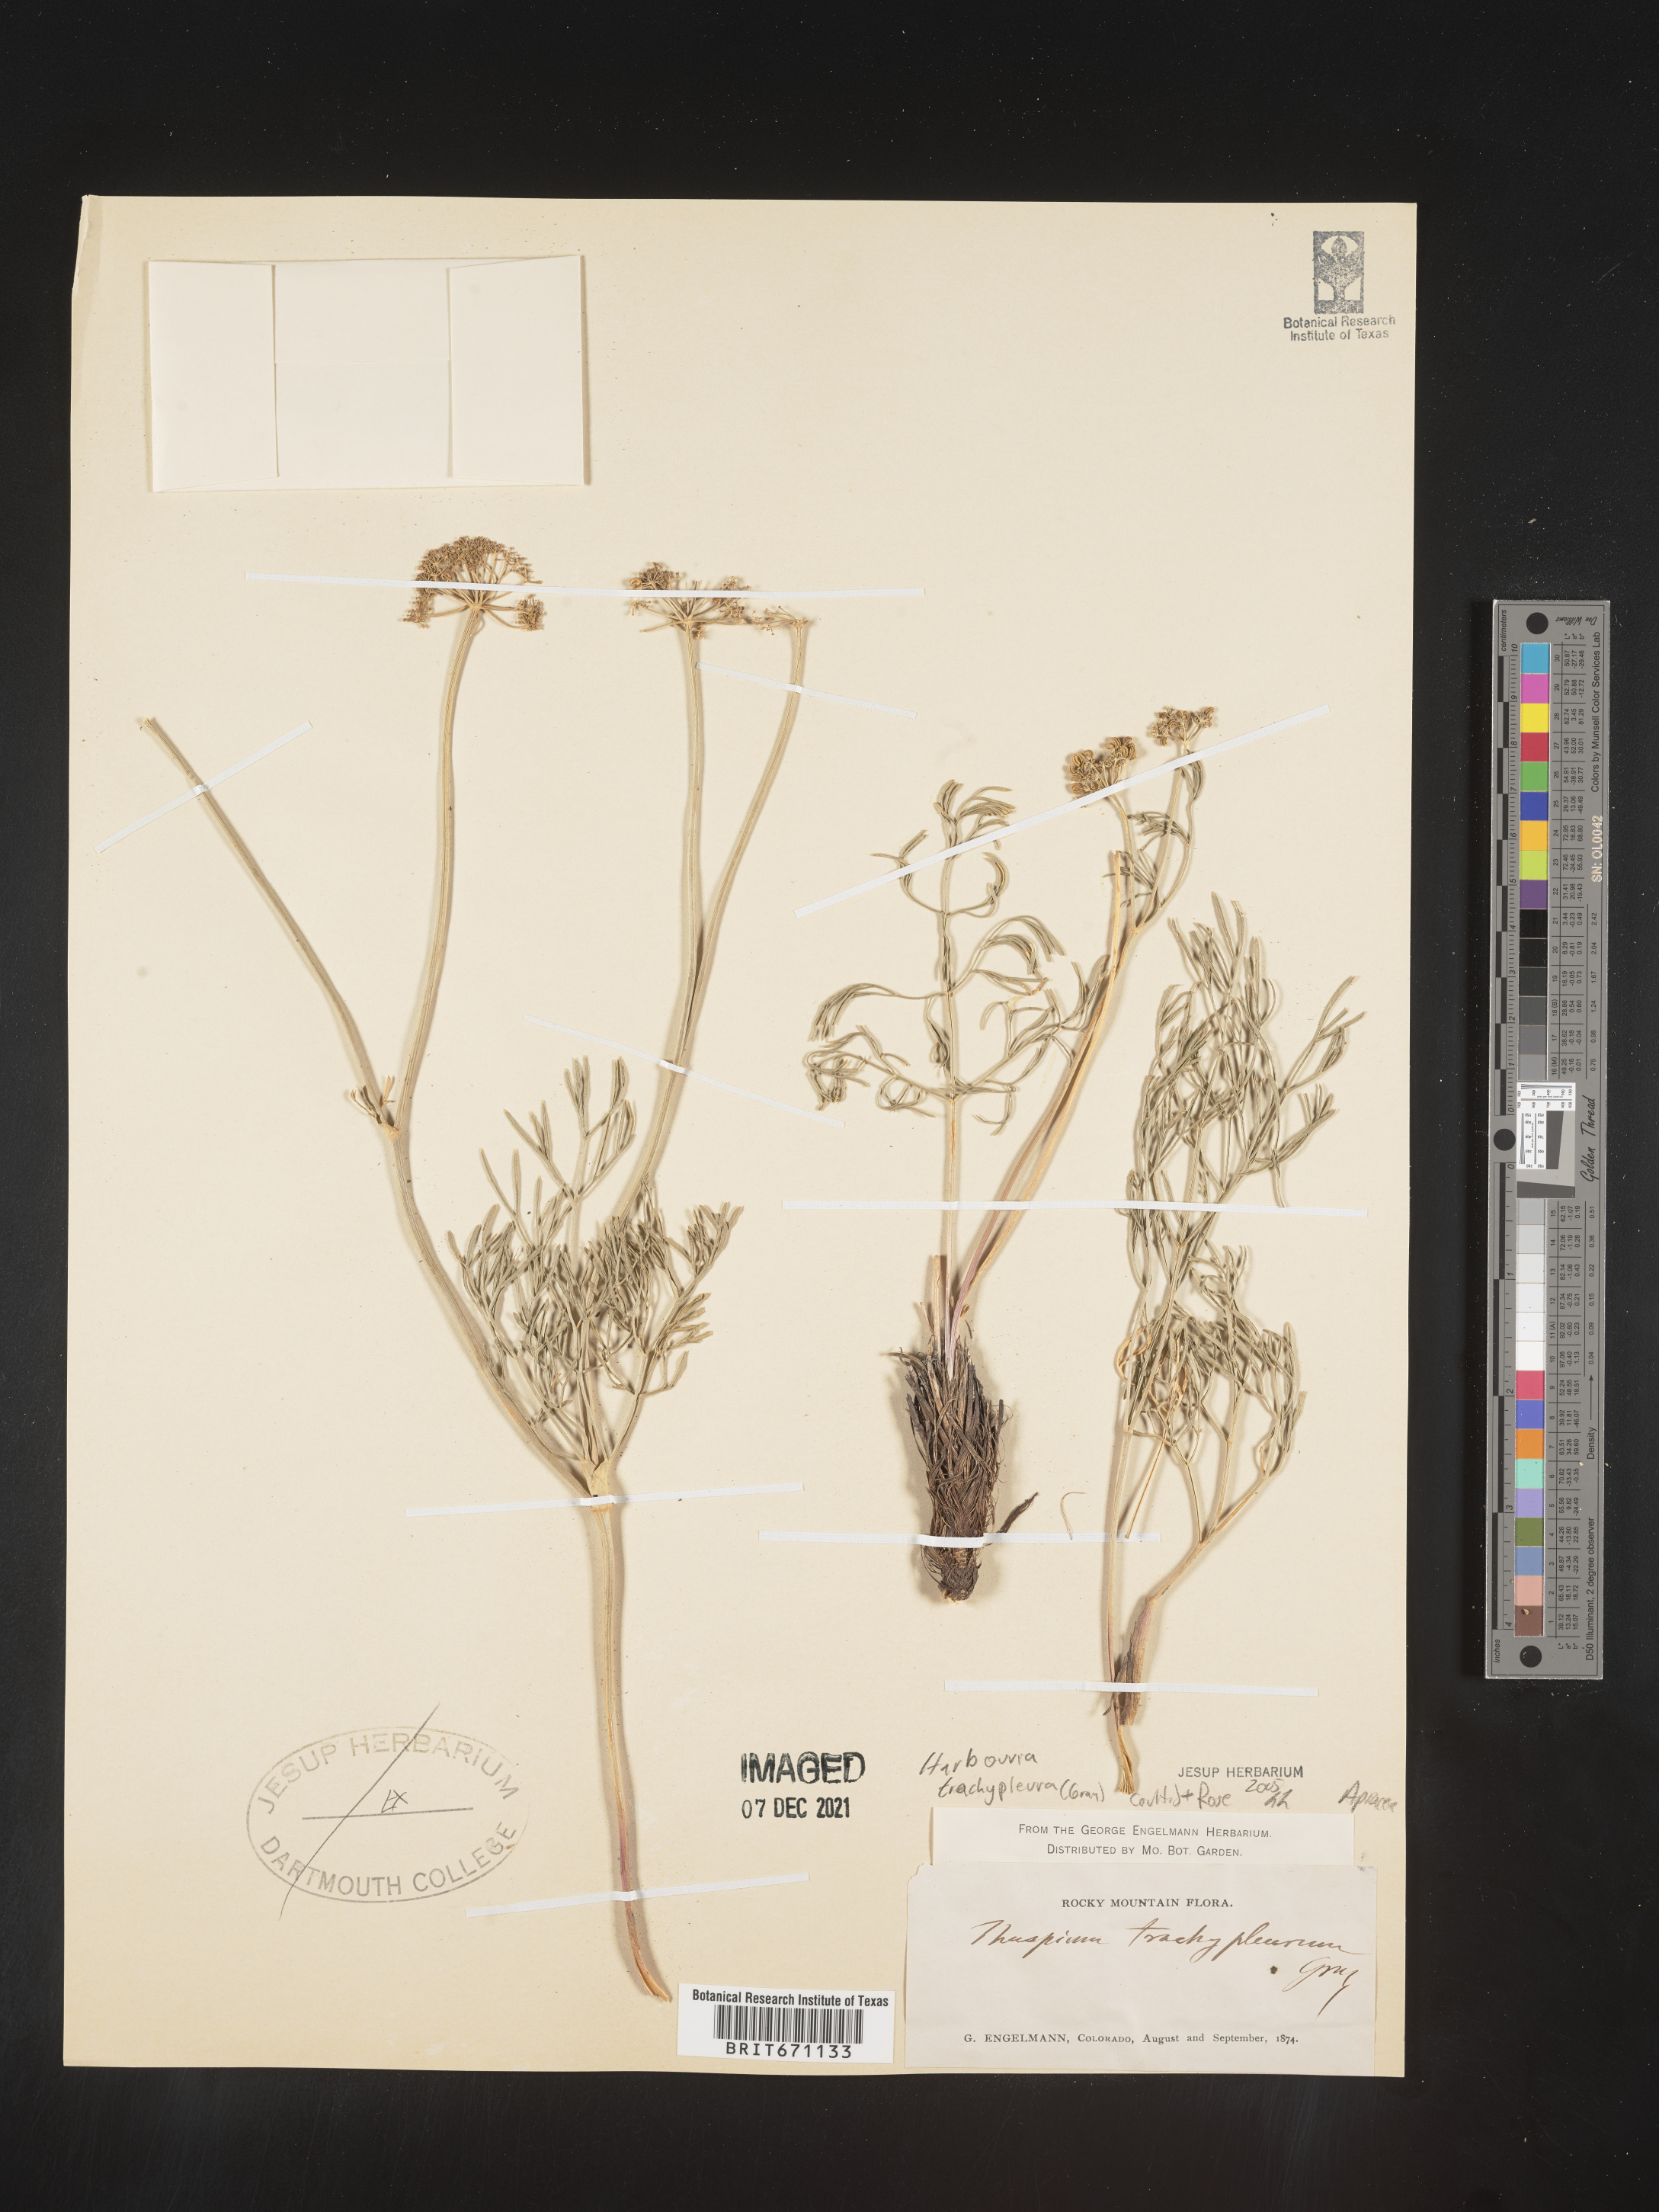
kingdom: Plantae
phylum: Tracheophyta
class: Magnoliopsida
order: Apiales
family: Apiaceae
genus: Harbouria
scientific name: Harbouria trachypleura
